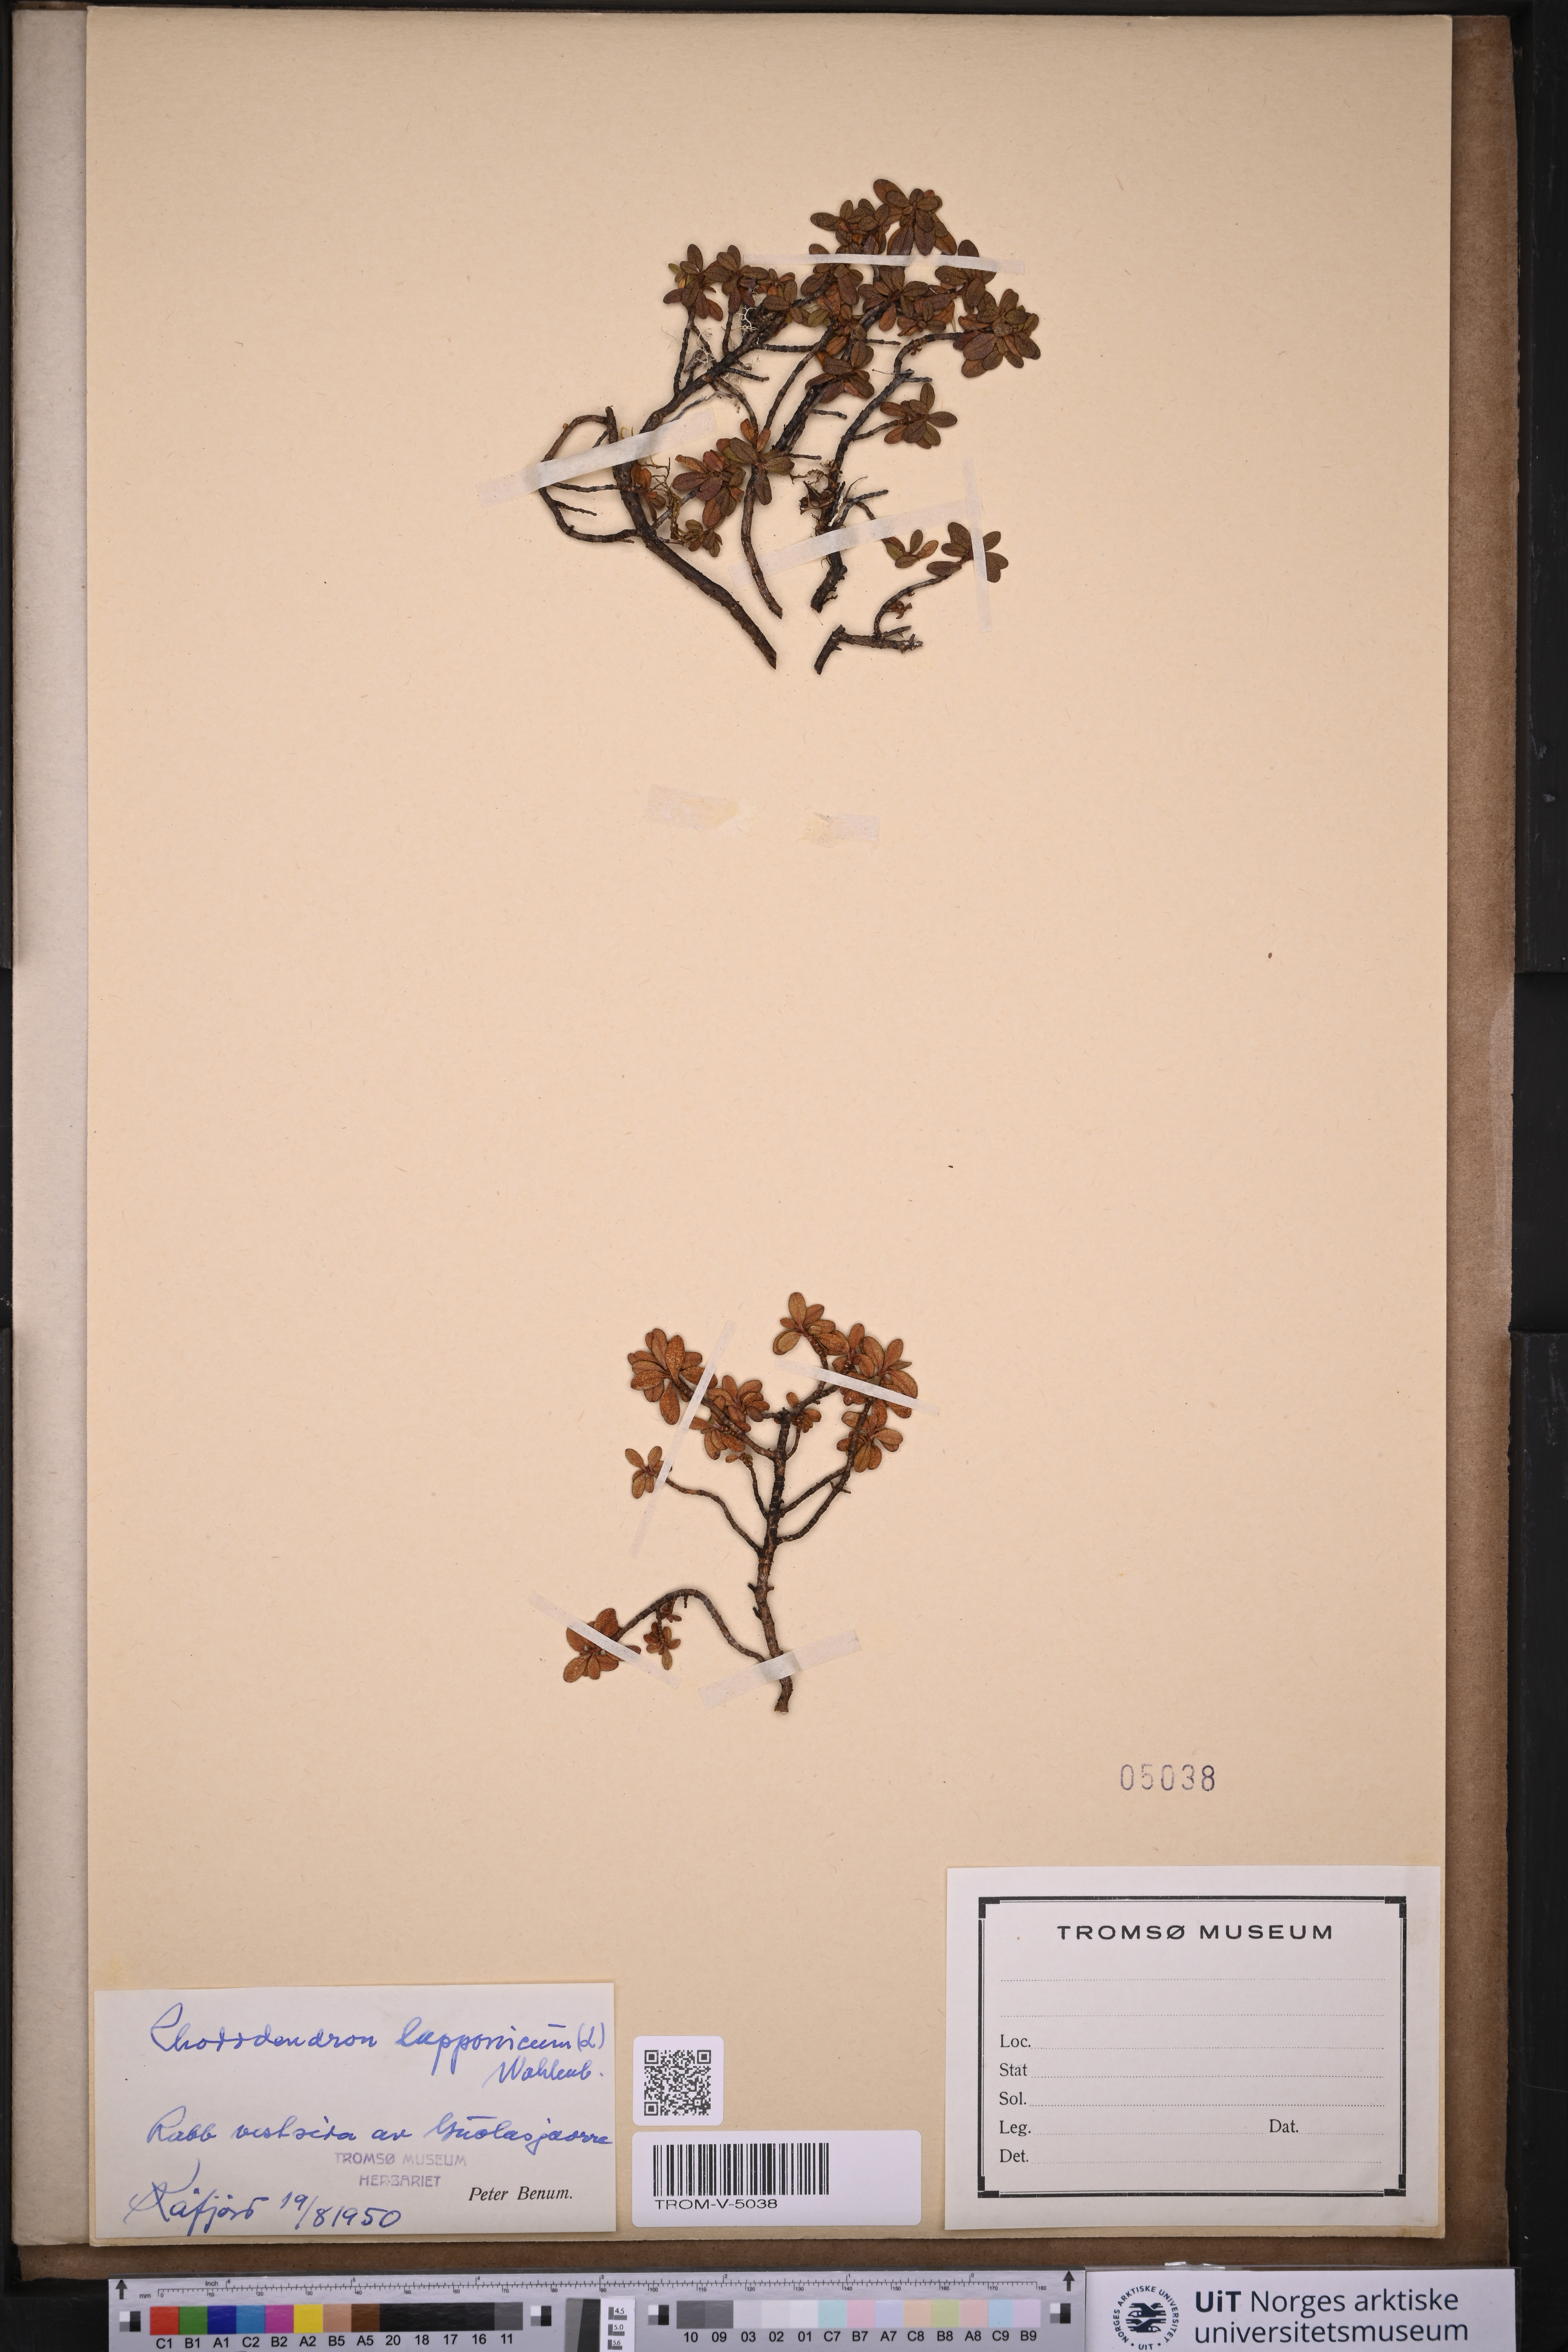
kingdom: Plantae
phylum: Tracheophyta
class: Magnoliopsida
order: Ericales
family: Ericaceae
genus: Rhododendron
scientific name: Rhododendron lapponicum
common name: Lapland rhododendron
